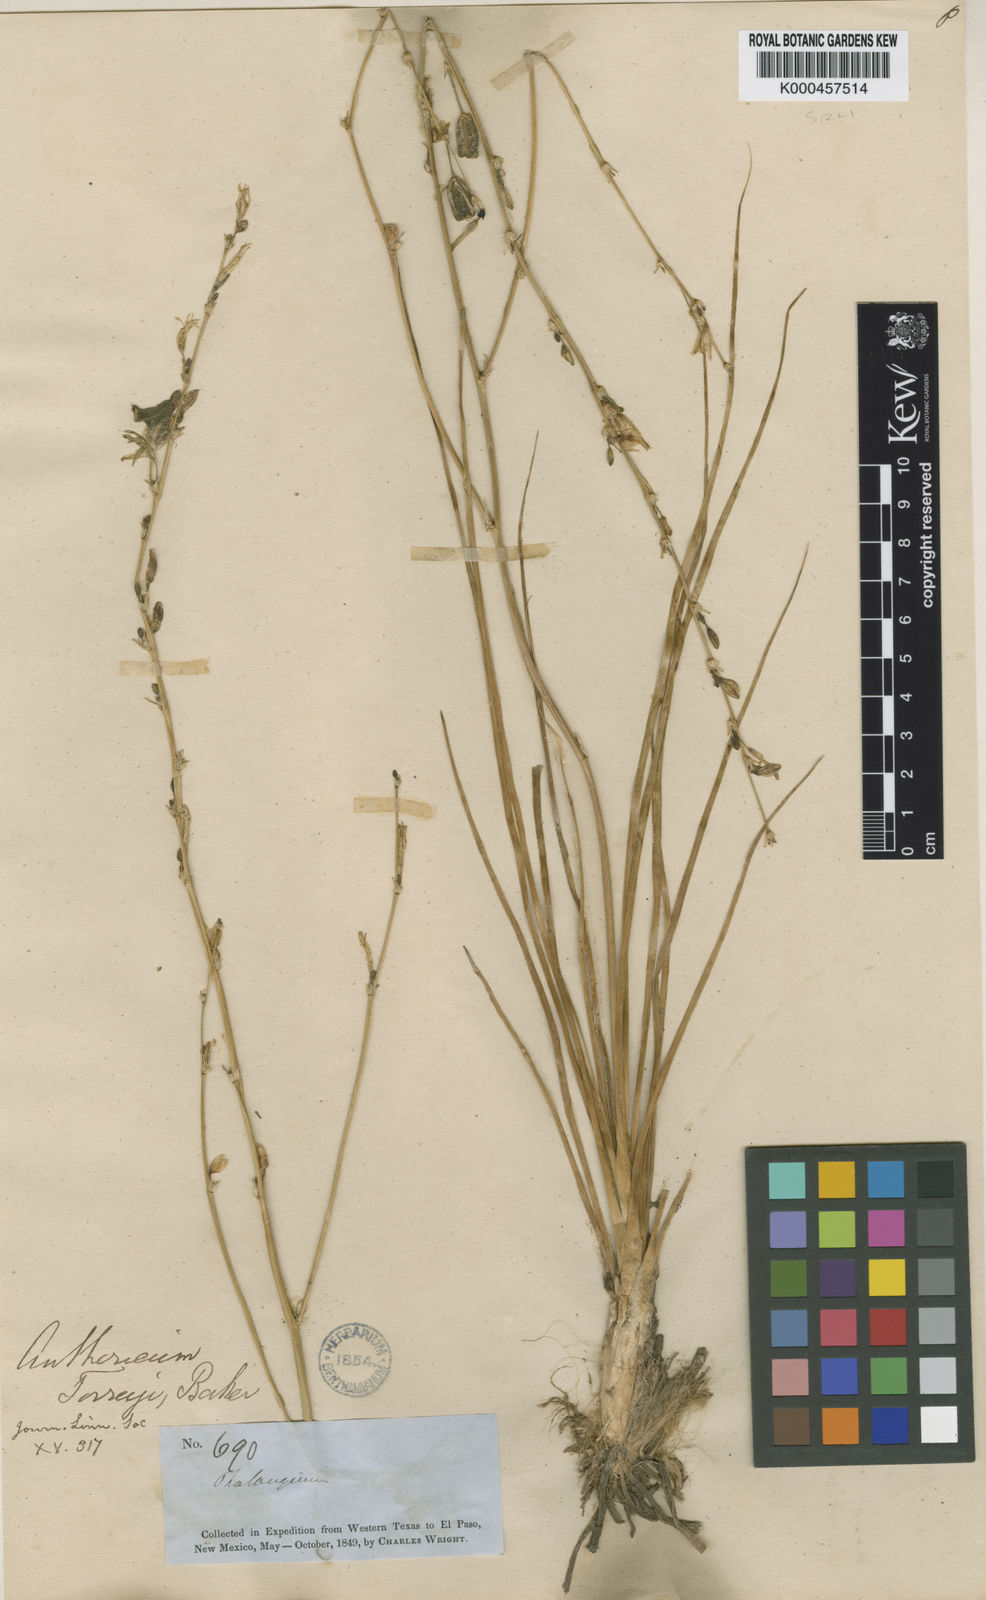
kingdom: Plantae
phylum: Tracheophyta
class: Liliopsida
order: Asparagales
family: Asparagaceae
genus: Echeandia
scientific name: Echeandia flavescens
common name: Amberlily
